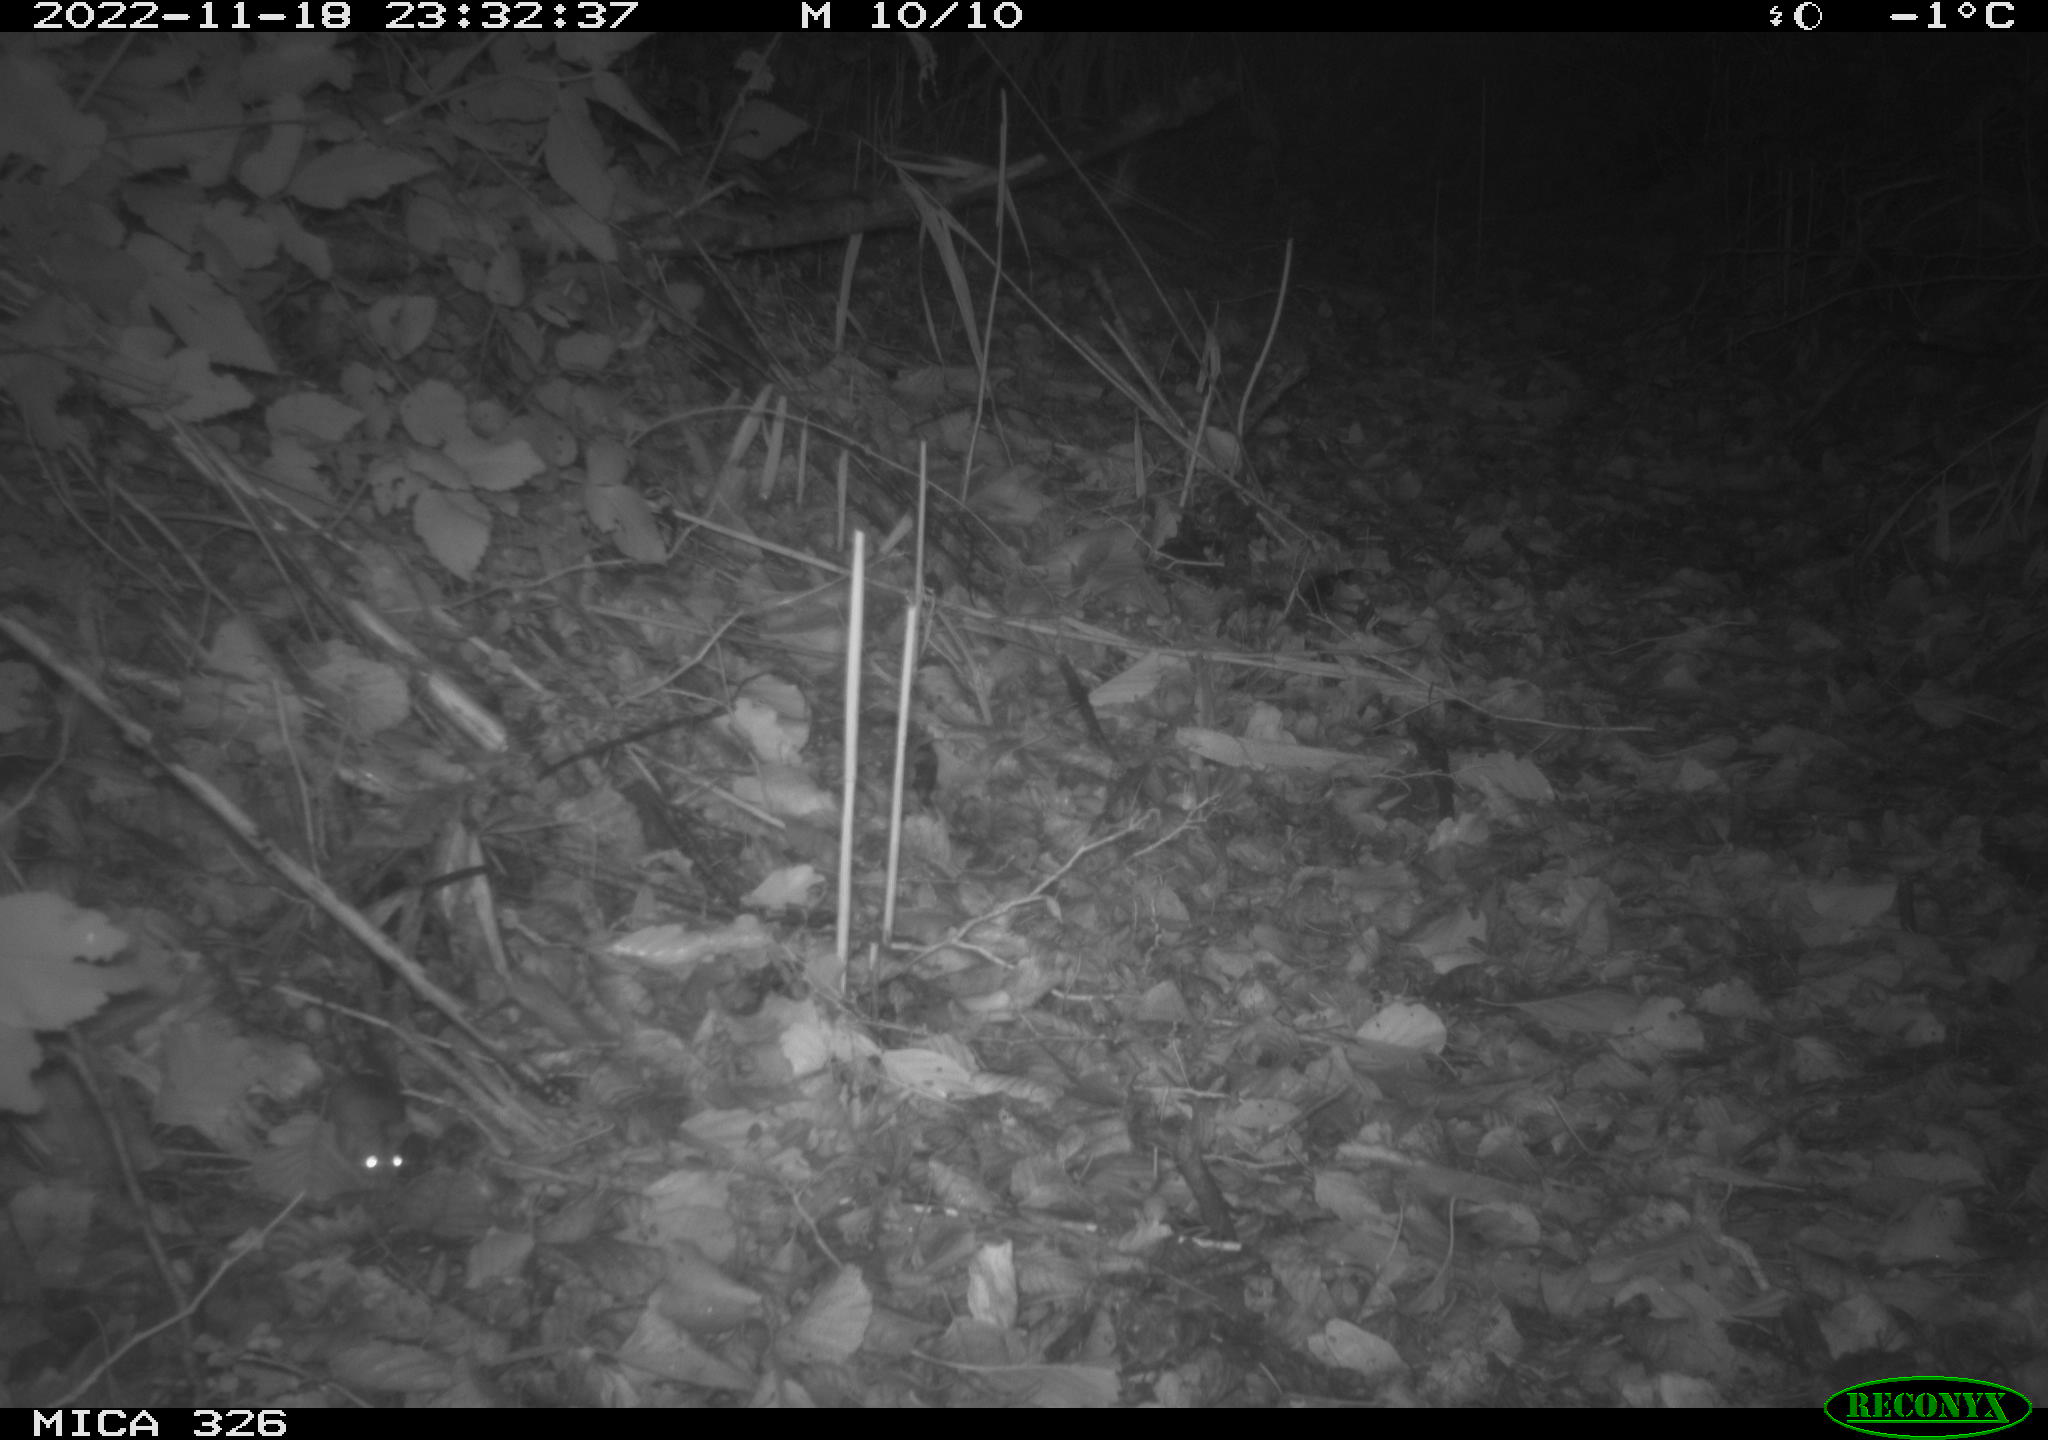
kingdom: Animalia
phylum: Chordata
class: Mammalia
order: Rodentia
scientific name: Rodentia
